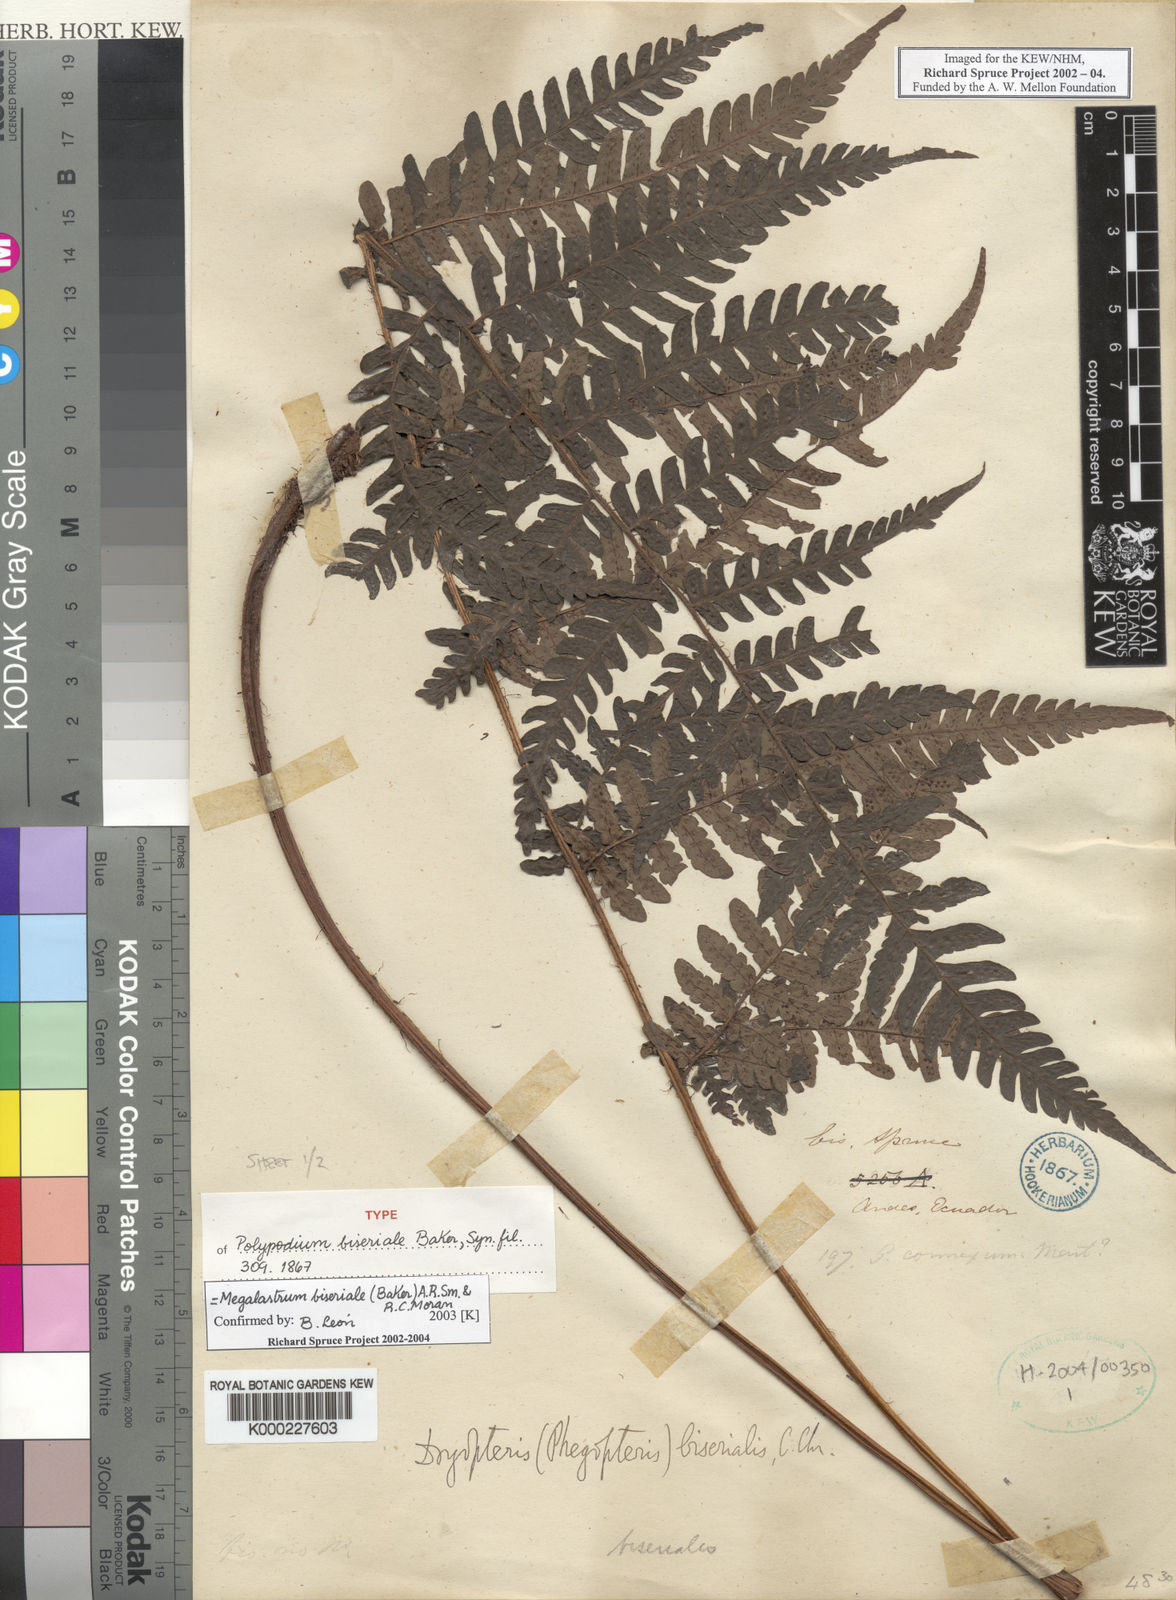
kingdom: Plantae
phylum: Tracheophyta
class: Polypodiopsida
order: Polypodiales
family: Dryopteridaceae
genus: Megalastrum
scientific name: Megalastrum biseriale
